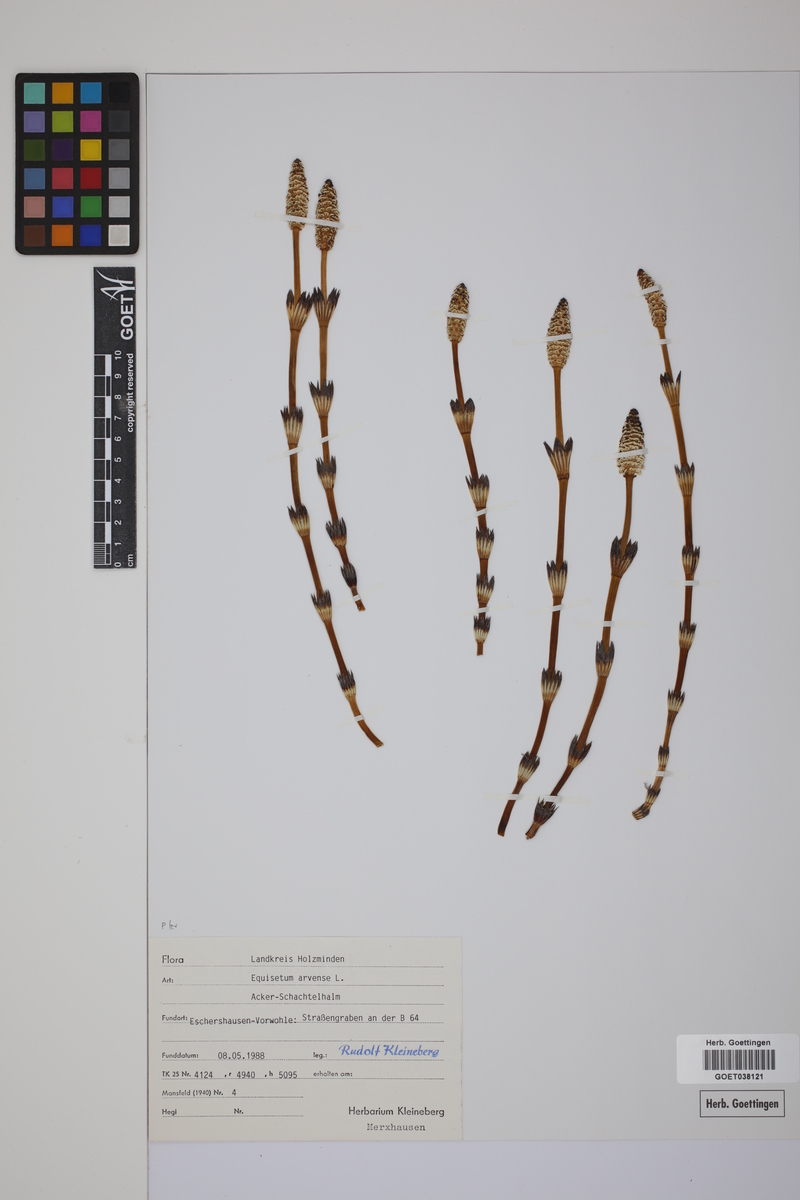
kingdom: Plantae
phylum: Tracheophyta
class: Polypodiopsida
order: Equisetales
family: Equisetaceae
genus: Equisetum
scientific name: Equisetum arvense
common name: Field horsetail
